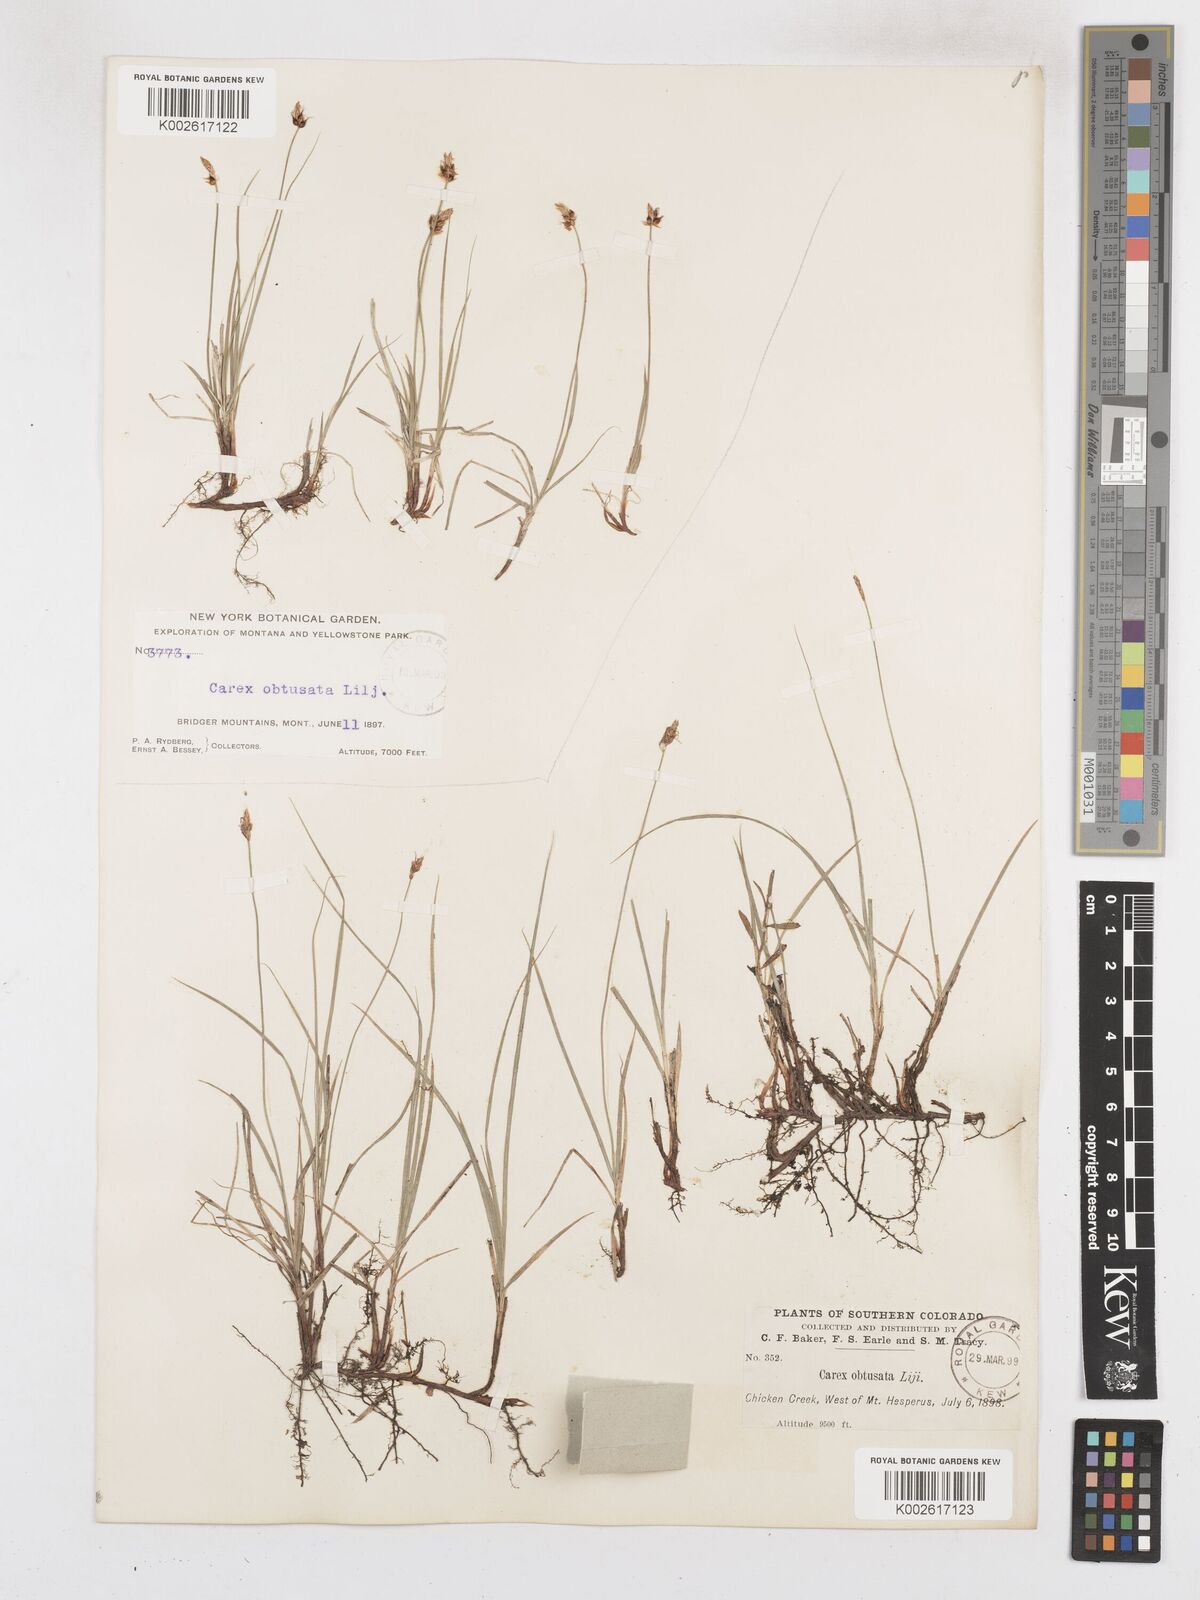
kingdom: Plantae
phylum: Tracheophyta
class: Liliopsida
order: Poales
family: Cyperaceae
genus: Carex
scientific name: Carex obtusata
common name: Blunt sedge
